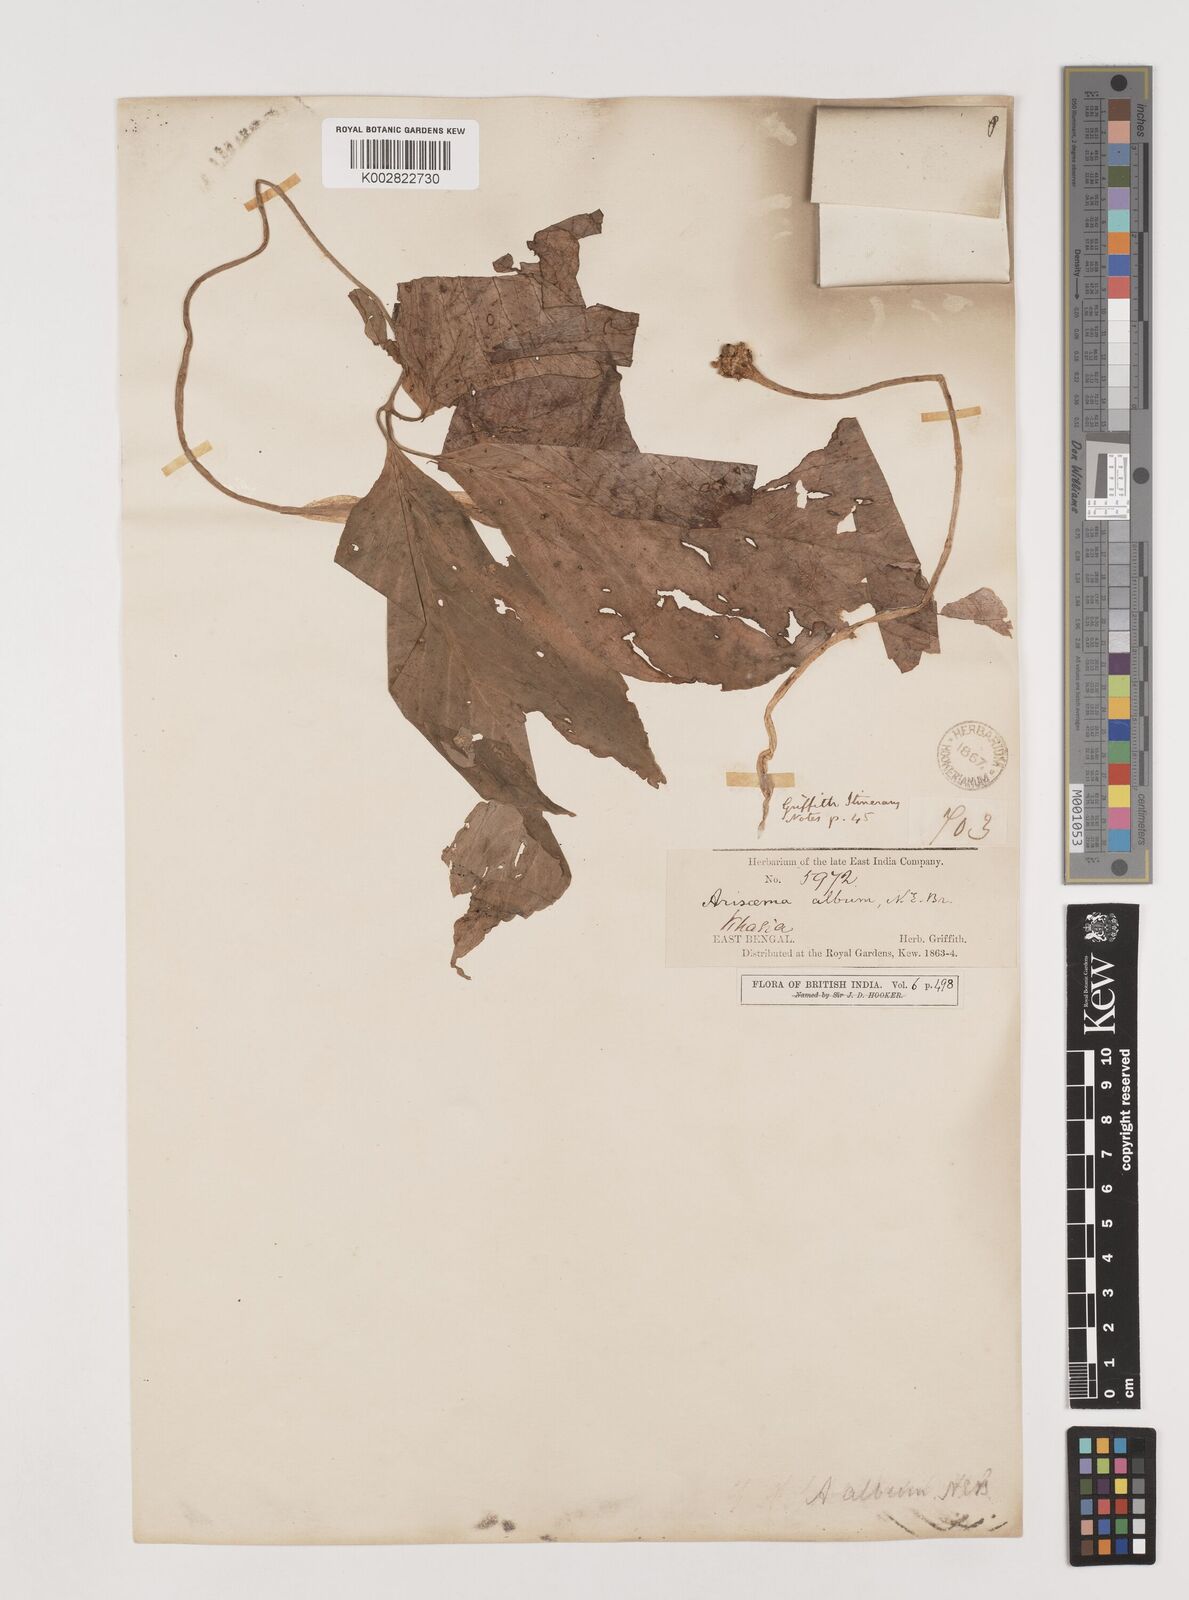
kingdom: Plantae
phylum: Tracheophyta
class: Liliopsida
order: Alismatales
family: Araceae
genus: Arisaema
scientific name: Arisaema album
